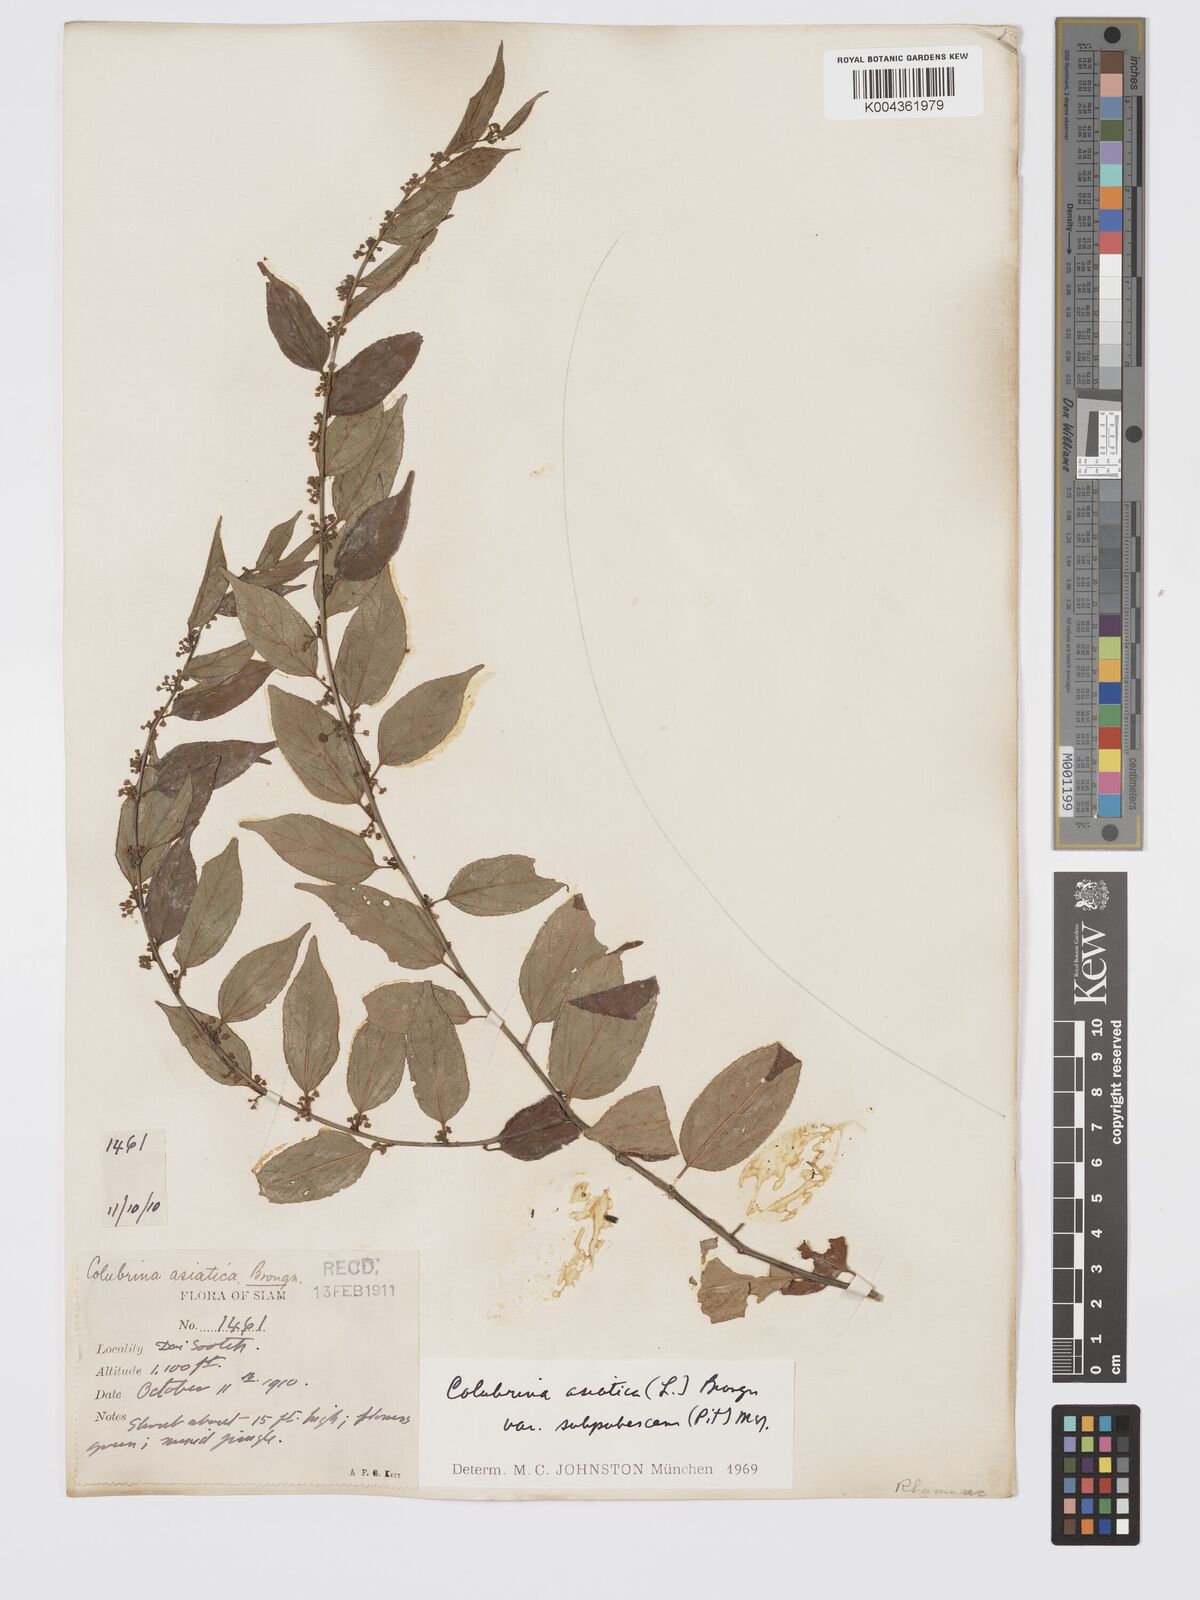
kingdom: Plantae
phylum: Tracheophyta
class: Magnoliopsida
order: Rosales
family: Rhamnaceae
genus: Colubrina
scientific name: Colubrina javanica
